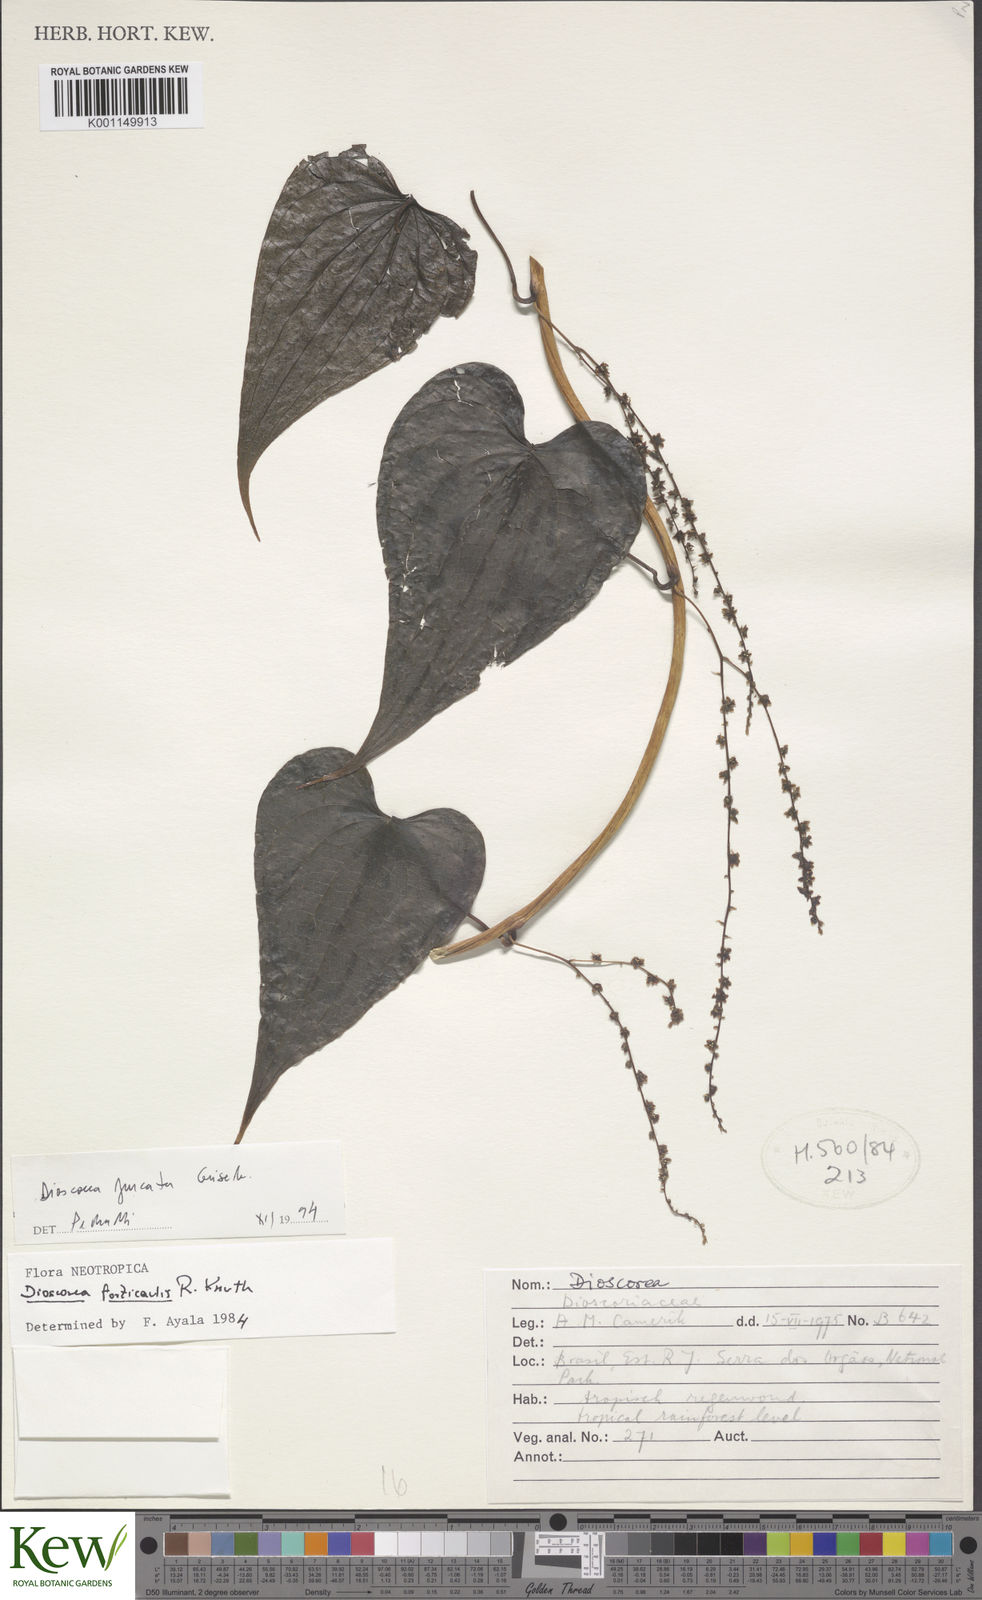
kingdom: Plantae
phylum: Tracheophyta
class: Liliopsida
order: Dioscoreales
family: Dioscoreaceae
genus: Dioscorea
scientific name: Dioscorea therezopolensis
